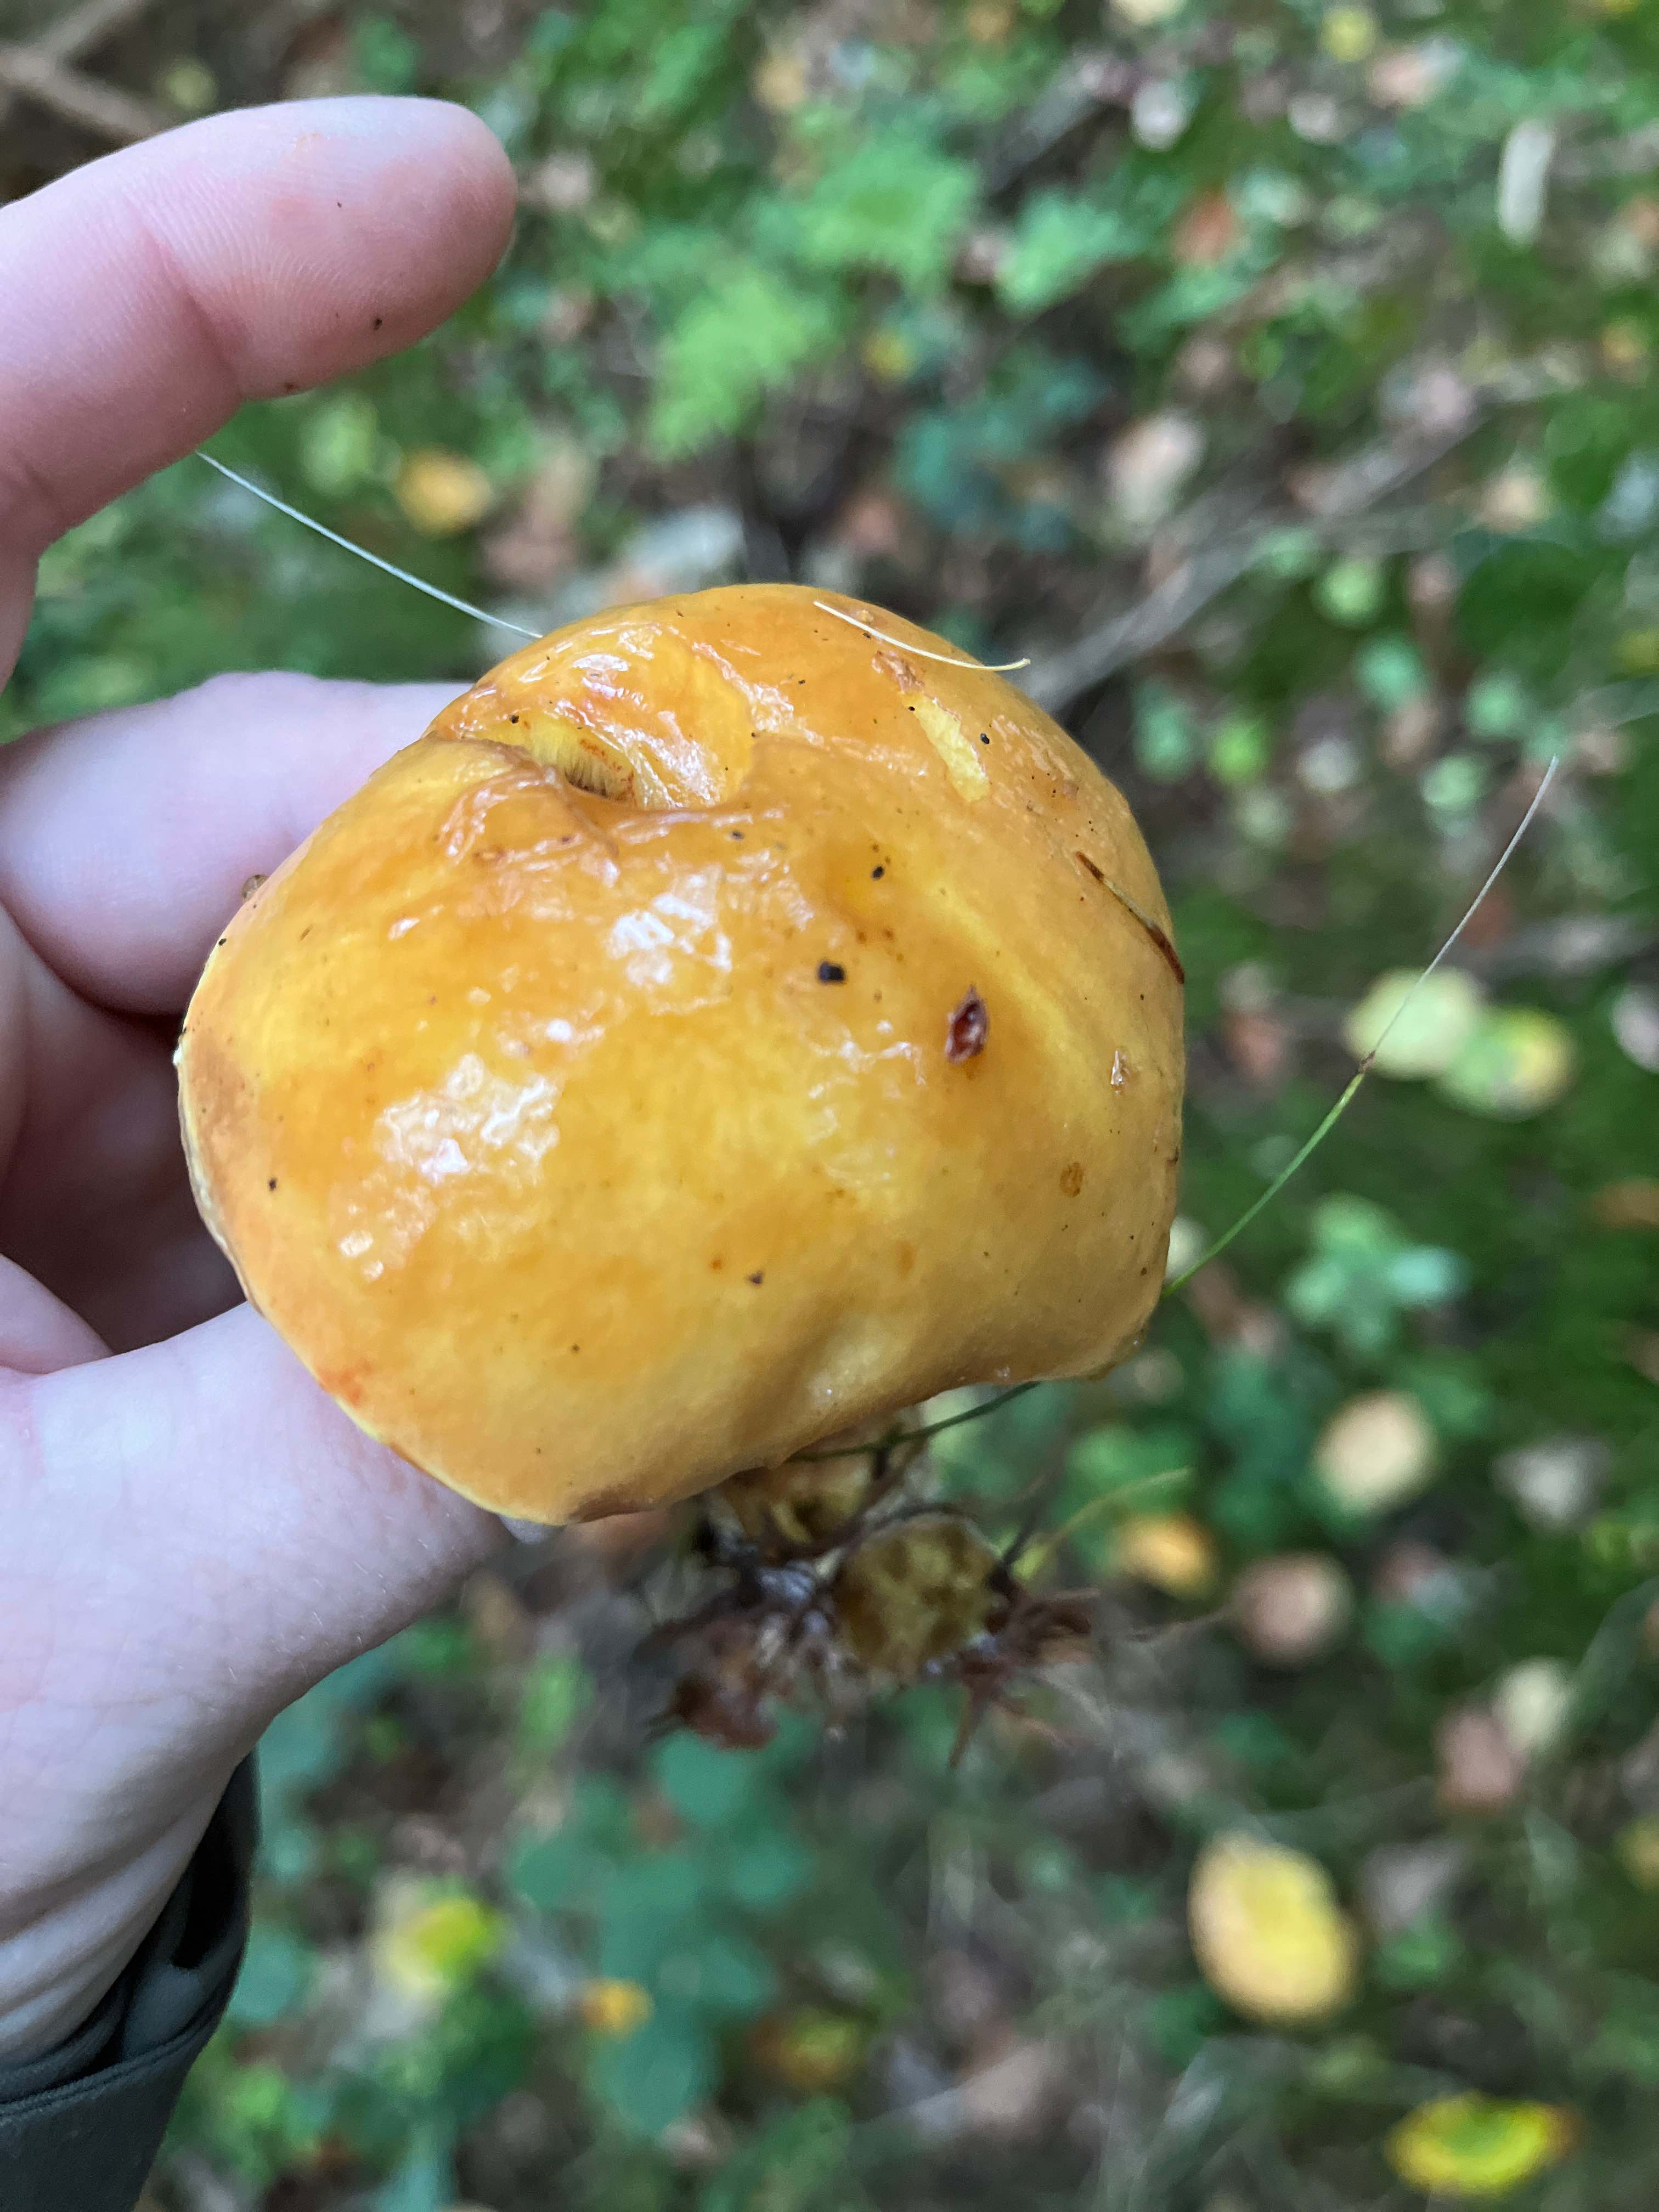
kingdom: Fungi
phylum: Basidiomycota
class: Agaricomycetes
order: Boletales
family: Suillaceae
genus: Suillus
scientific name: Suillus grevillei
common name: lærke-slimrørhat
